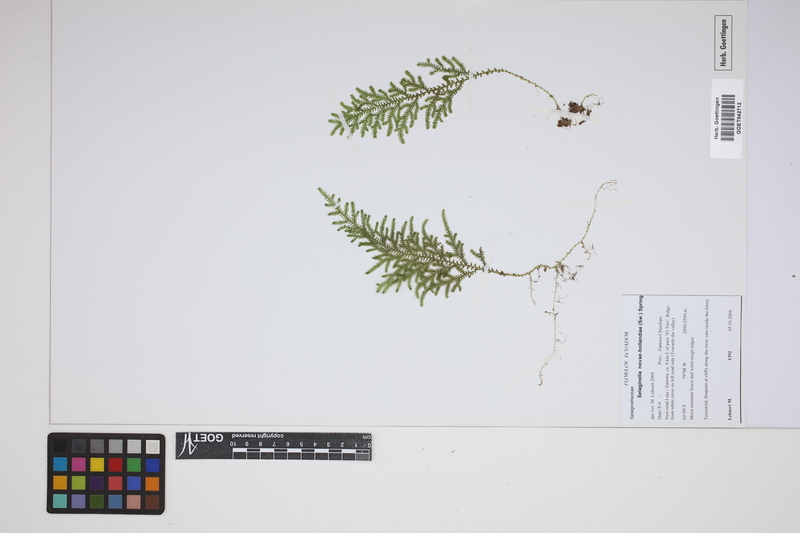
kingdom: Plantae
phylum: Tracheophyta
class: Lycopodiopsida
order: Selaginellales
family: Selaginellaceae
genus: Selaginella
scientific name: Selaginella novae-hollandiae
